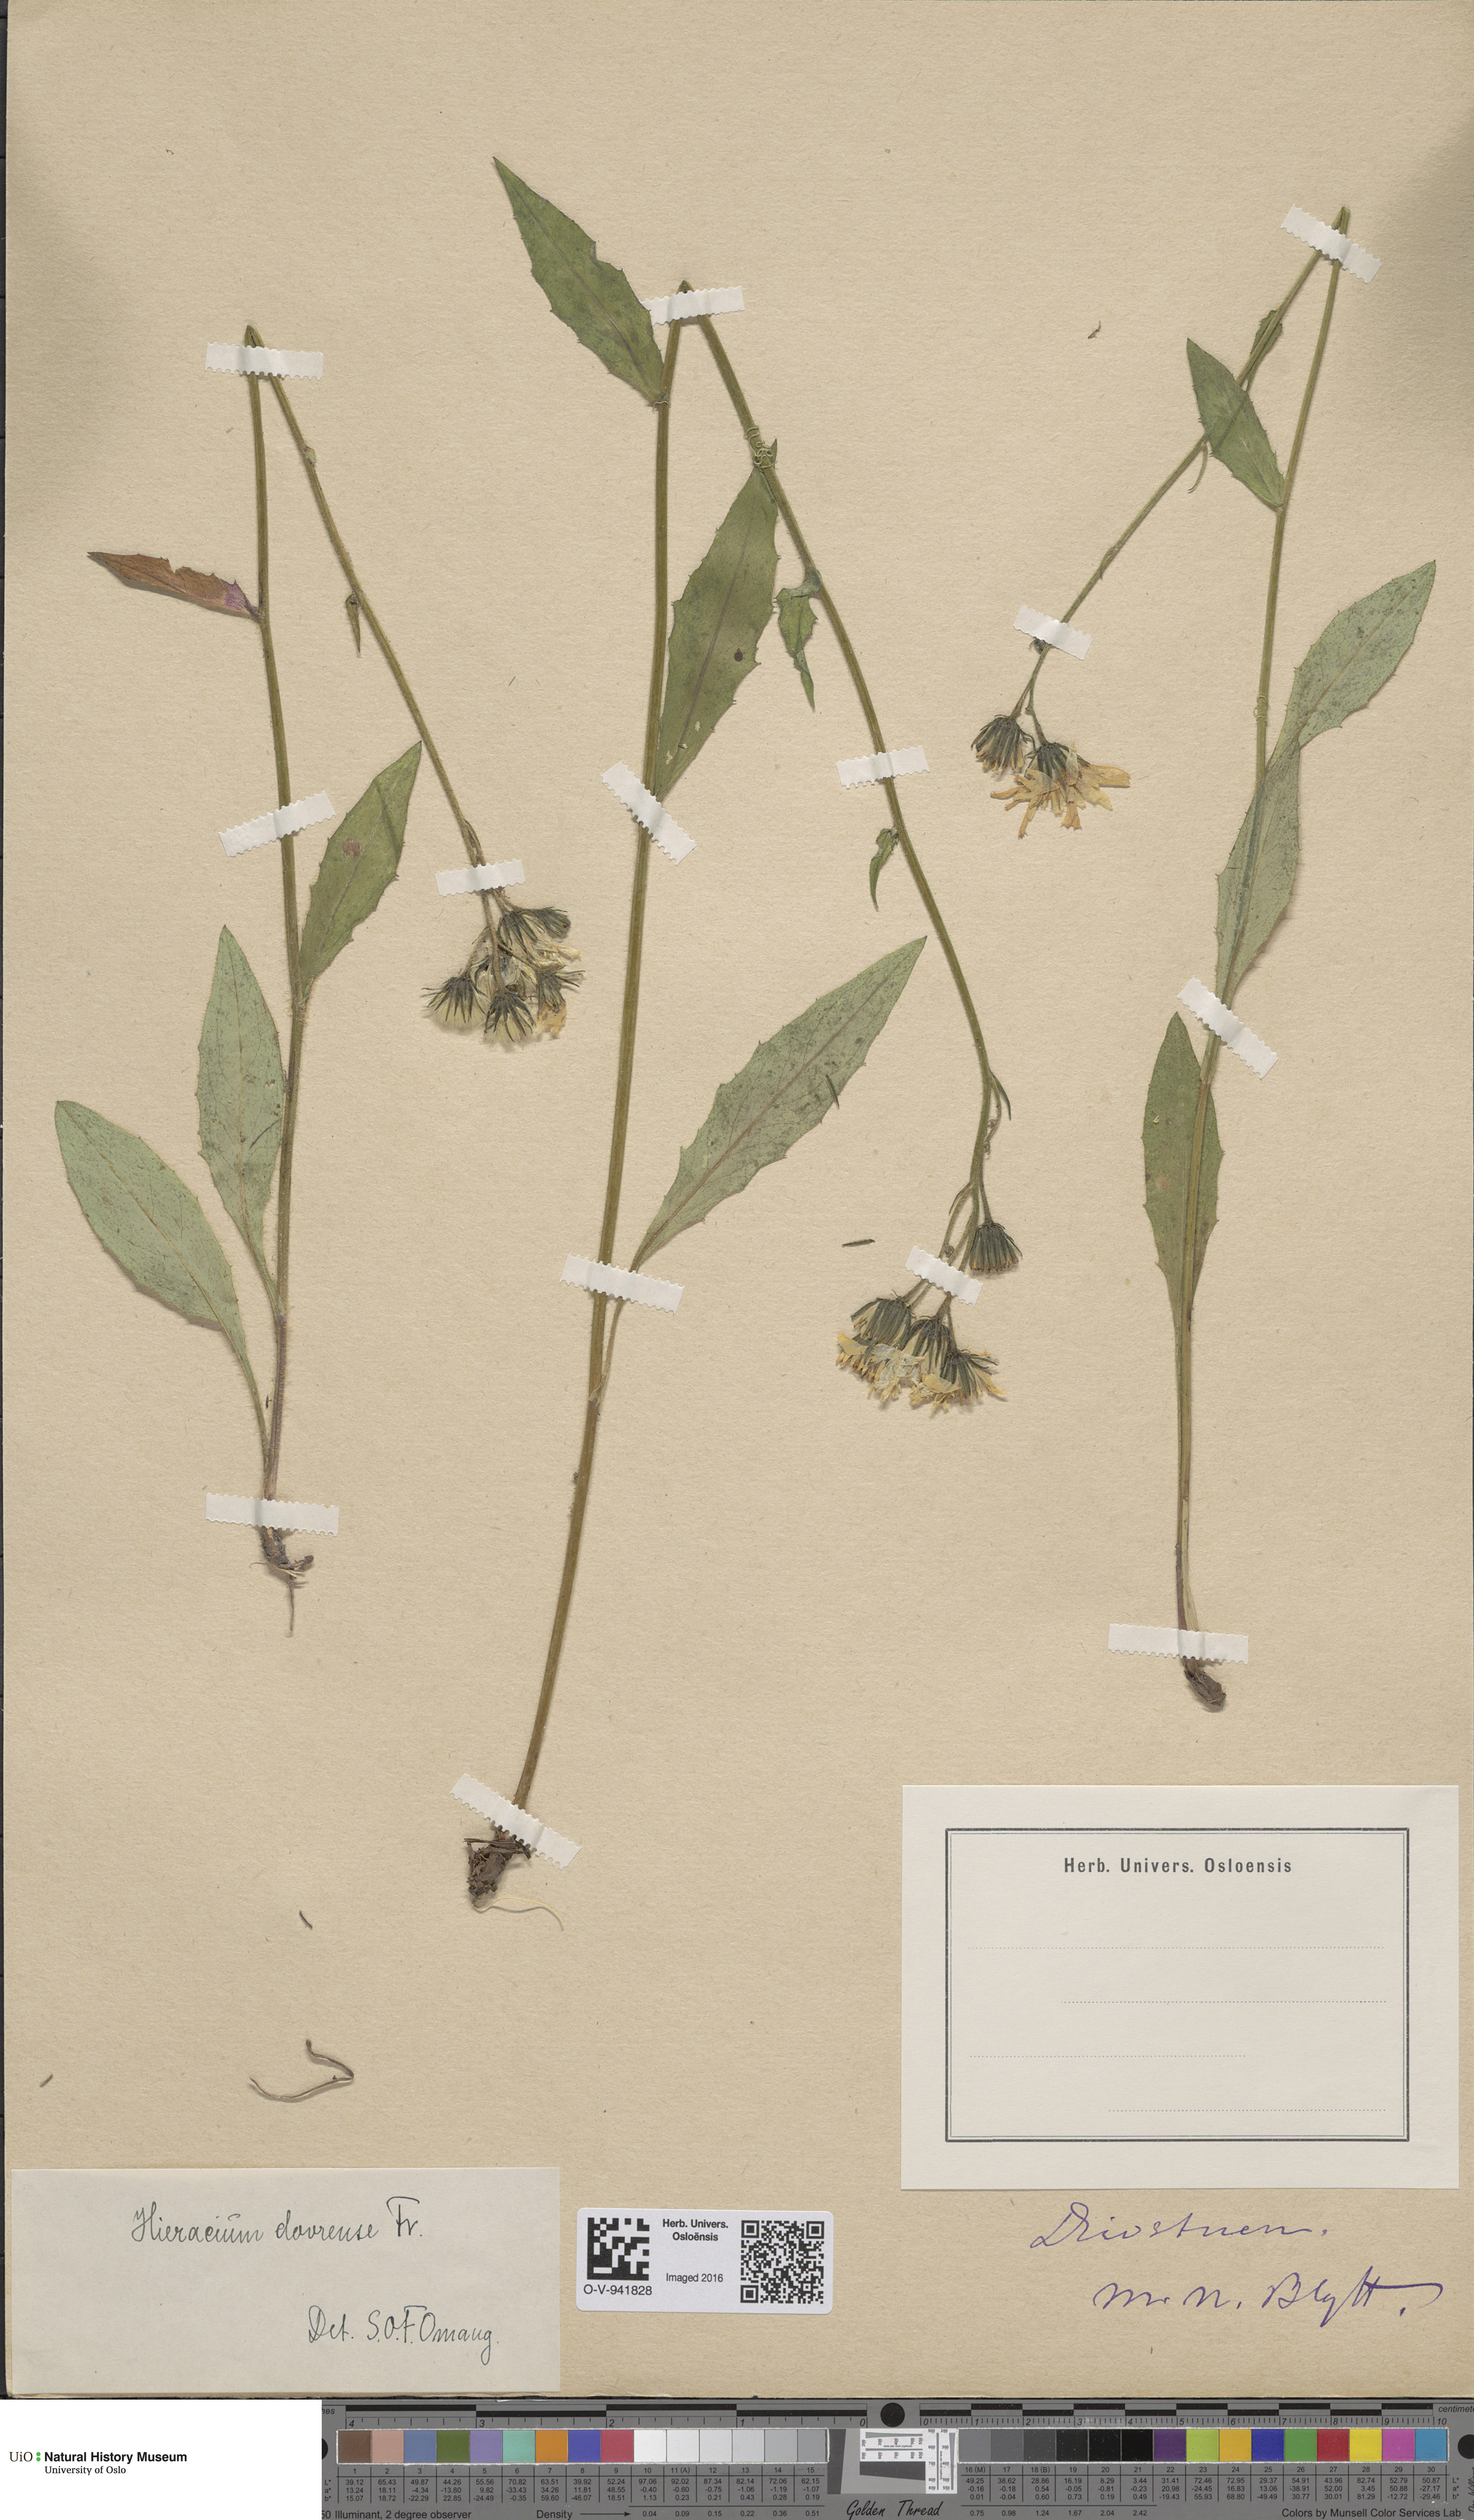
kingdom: Plantae
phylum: Tracheophyta
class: Magnoliopsida
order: Asterales
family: Asteraceae
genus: Hieracium
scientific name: Hieracium dovrense
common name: Dovre hawkweed
